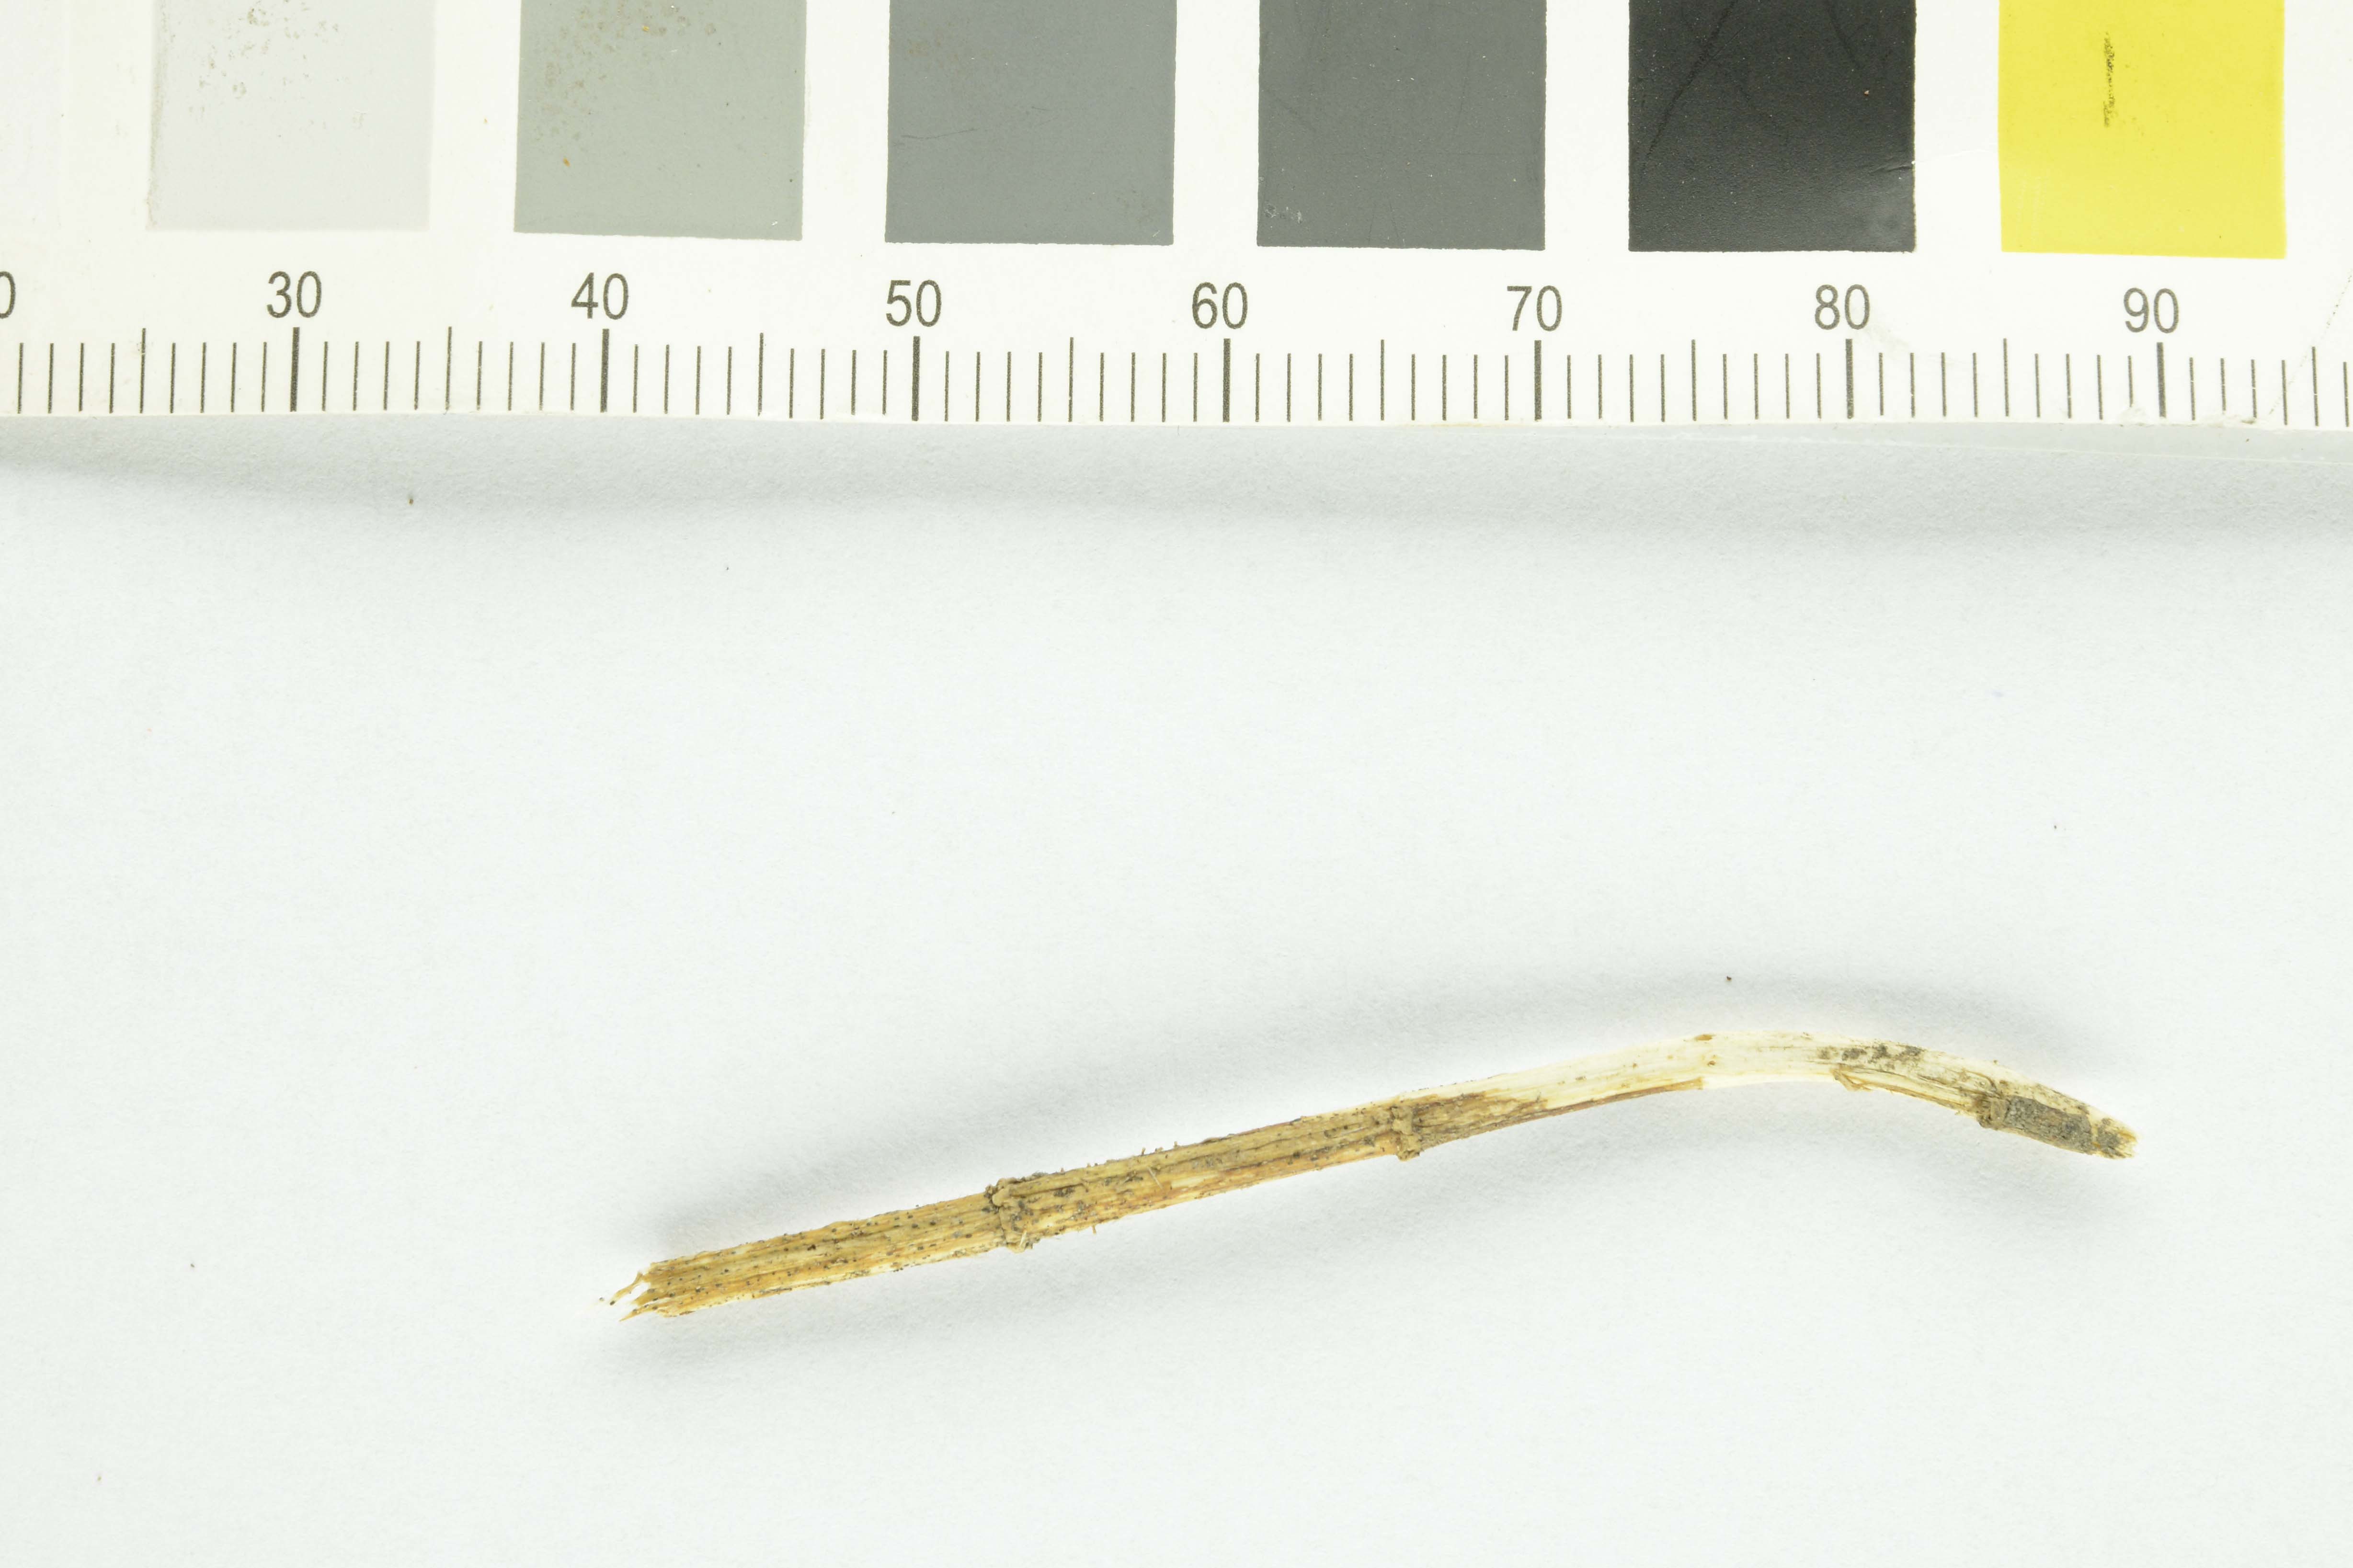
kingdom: Fungi
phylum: Basidiomycota
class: Agaricomycetes
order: Agaricales
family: Marasmiaceae
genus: Calyptella
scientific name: Calyptella capula
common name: Bowl hoodie
